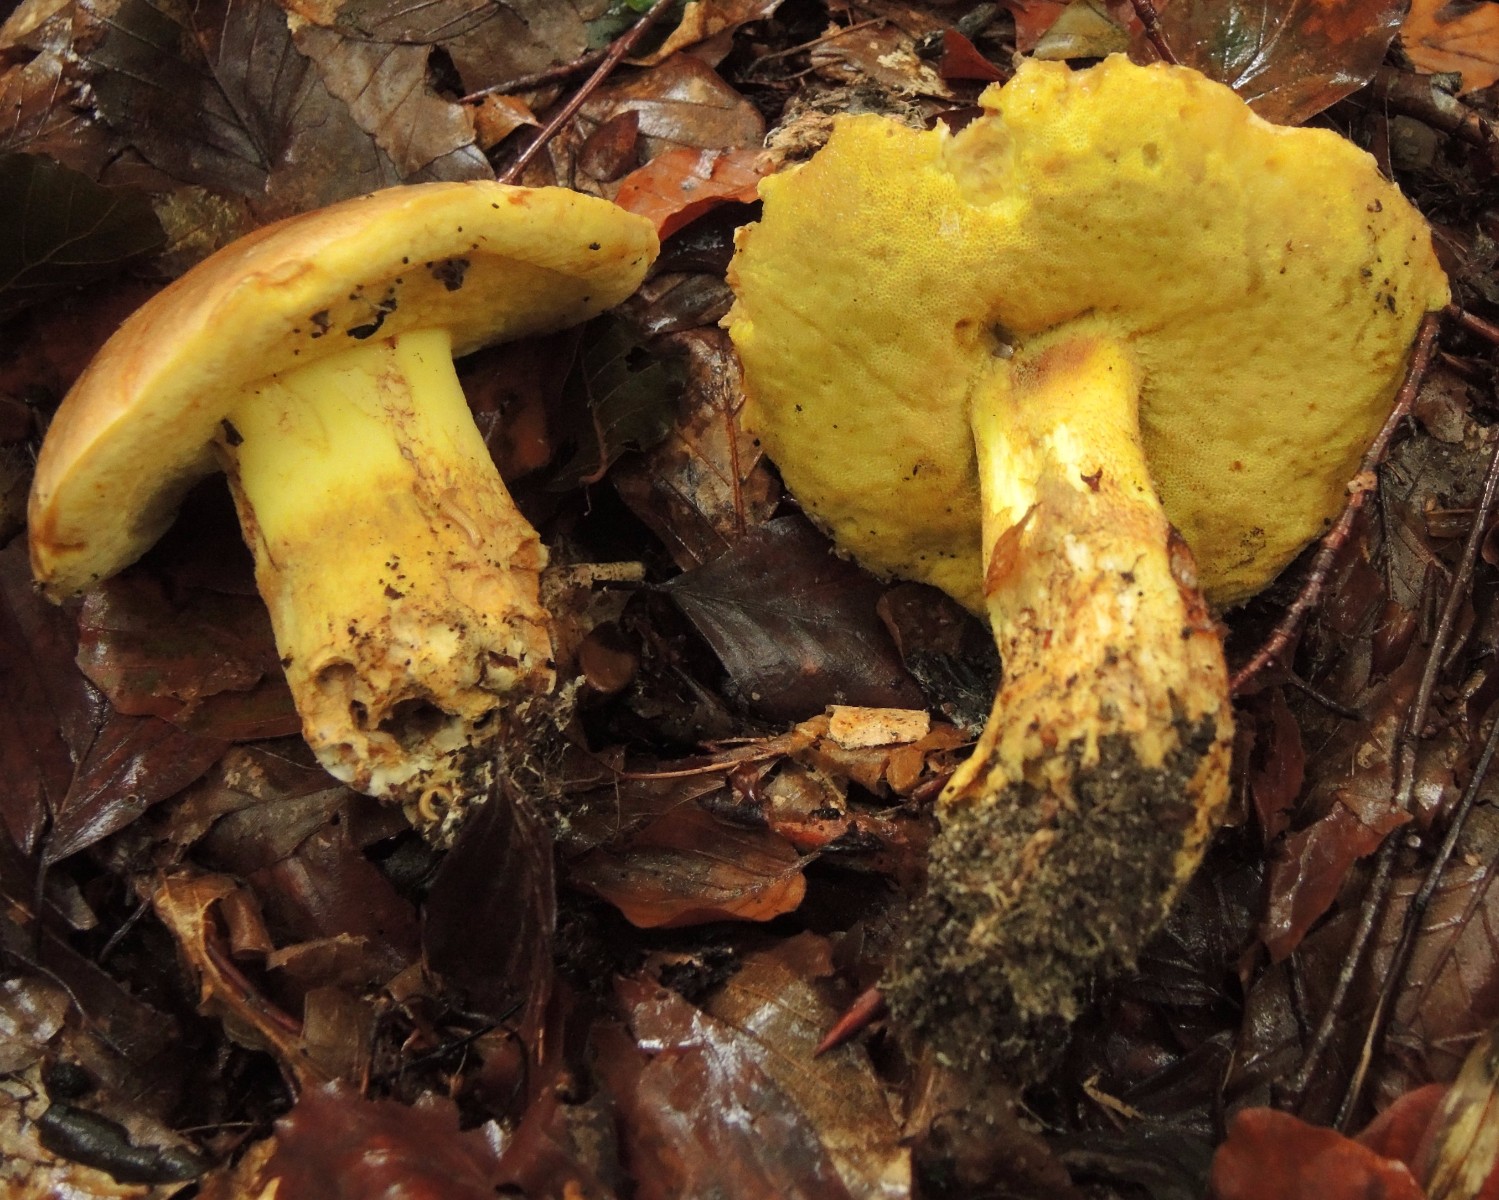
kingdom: Fungi
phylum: Basidiomycota
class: Agaricomycetes
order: Boletales
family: Boletaceae
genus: Butyriboletus
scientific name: Butyriboletus appendiculatus
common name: tenstokket rørhat
